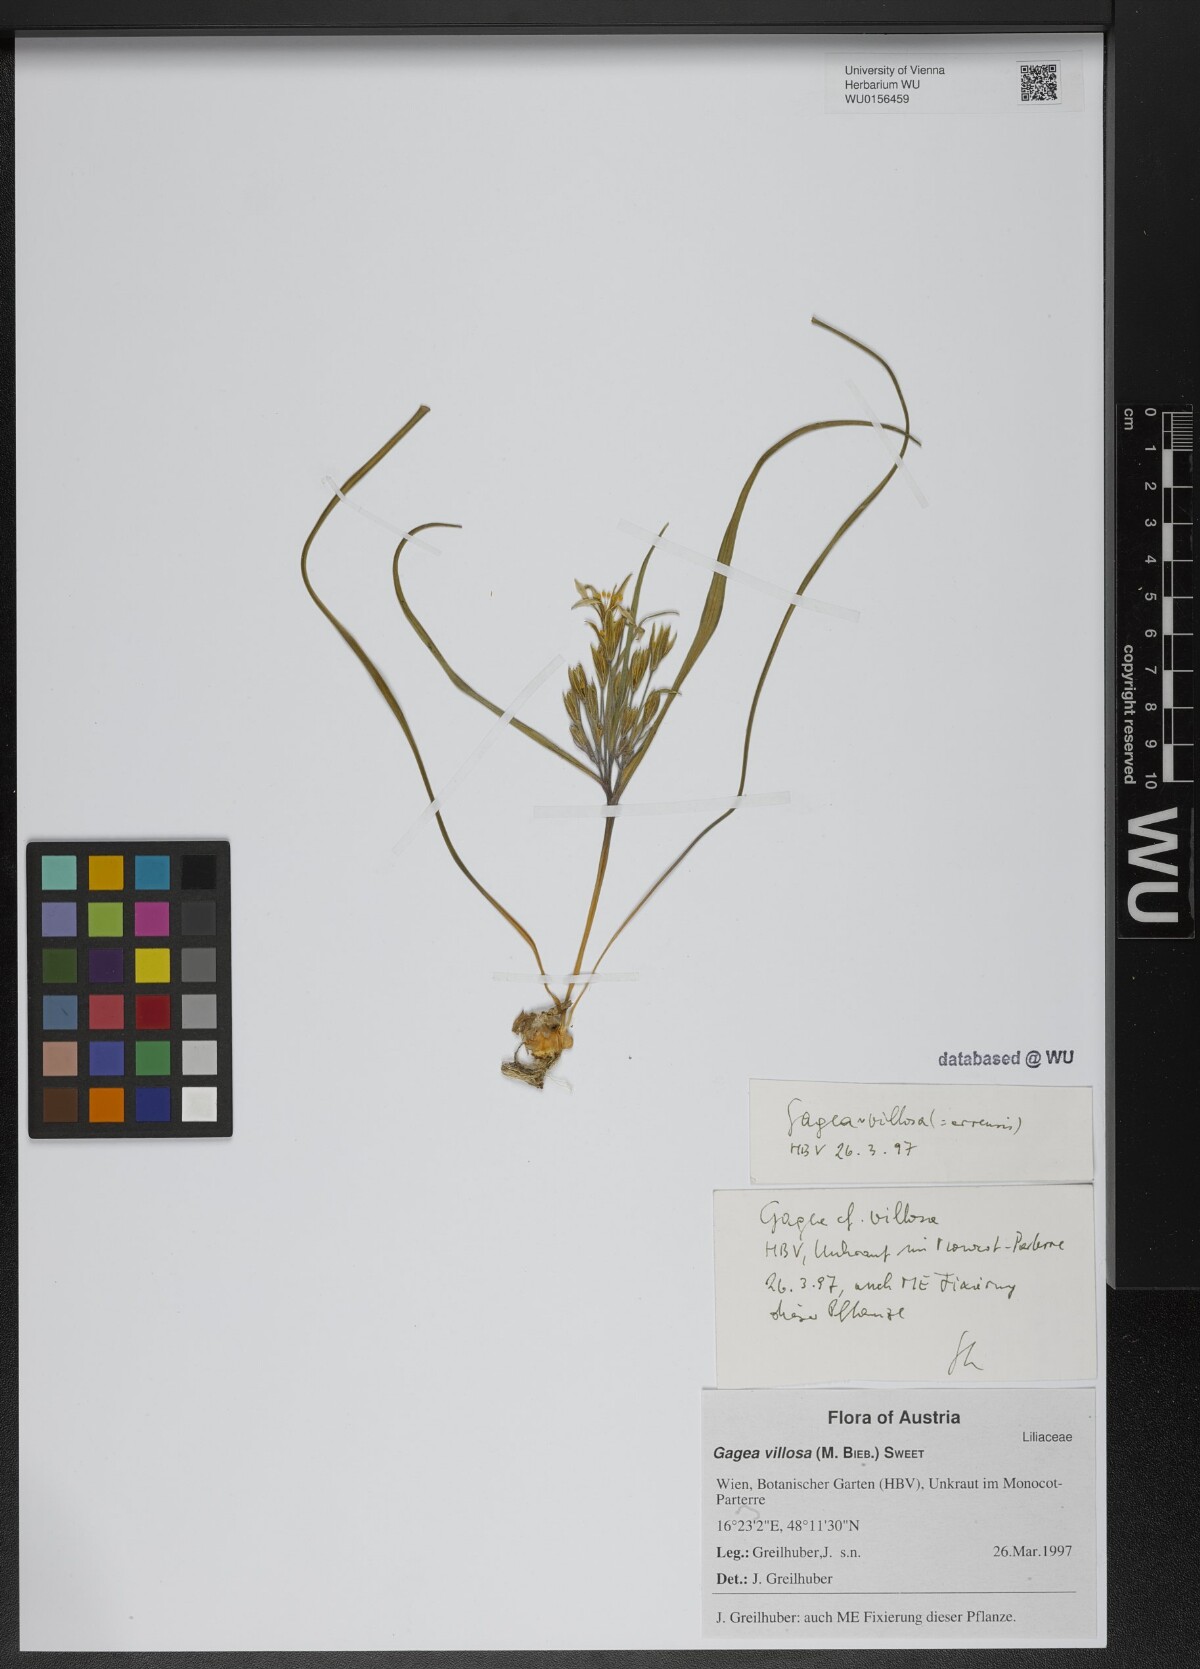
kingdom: Plantae
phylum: Tracheophyta
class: Liliopsida
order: Liliales
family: Liliaceae
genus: Gagea
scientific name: Gagea villosa
